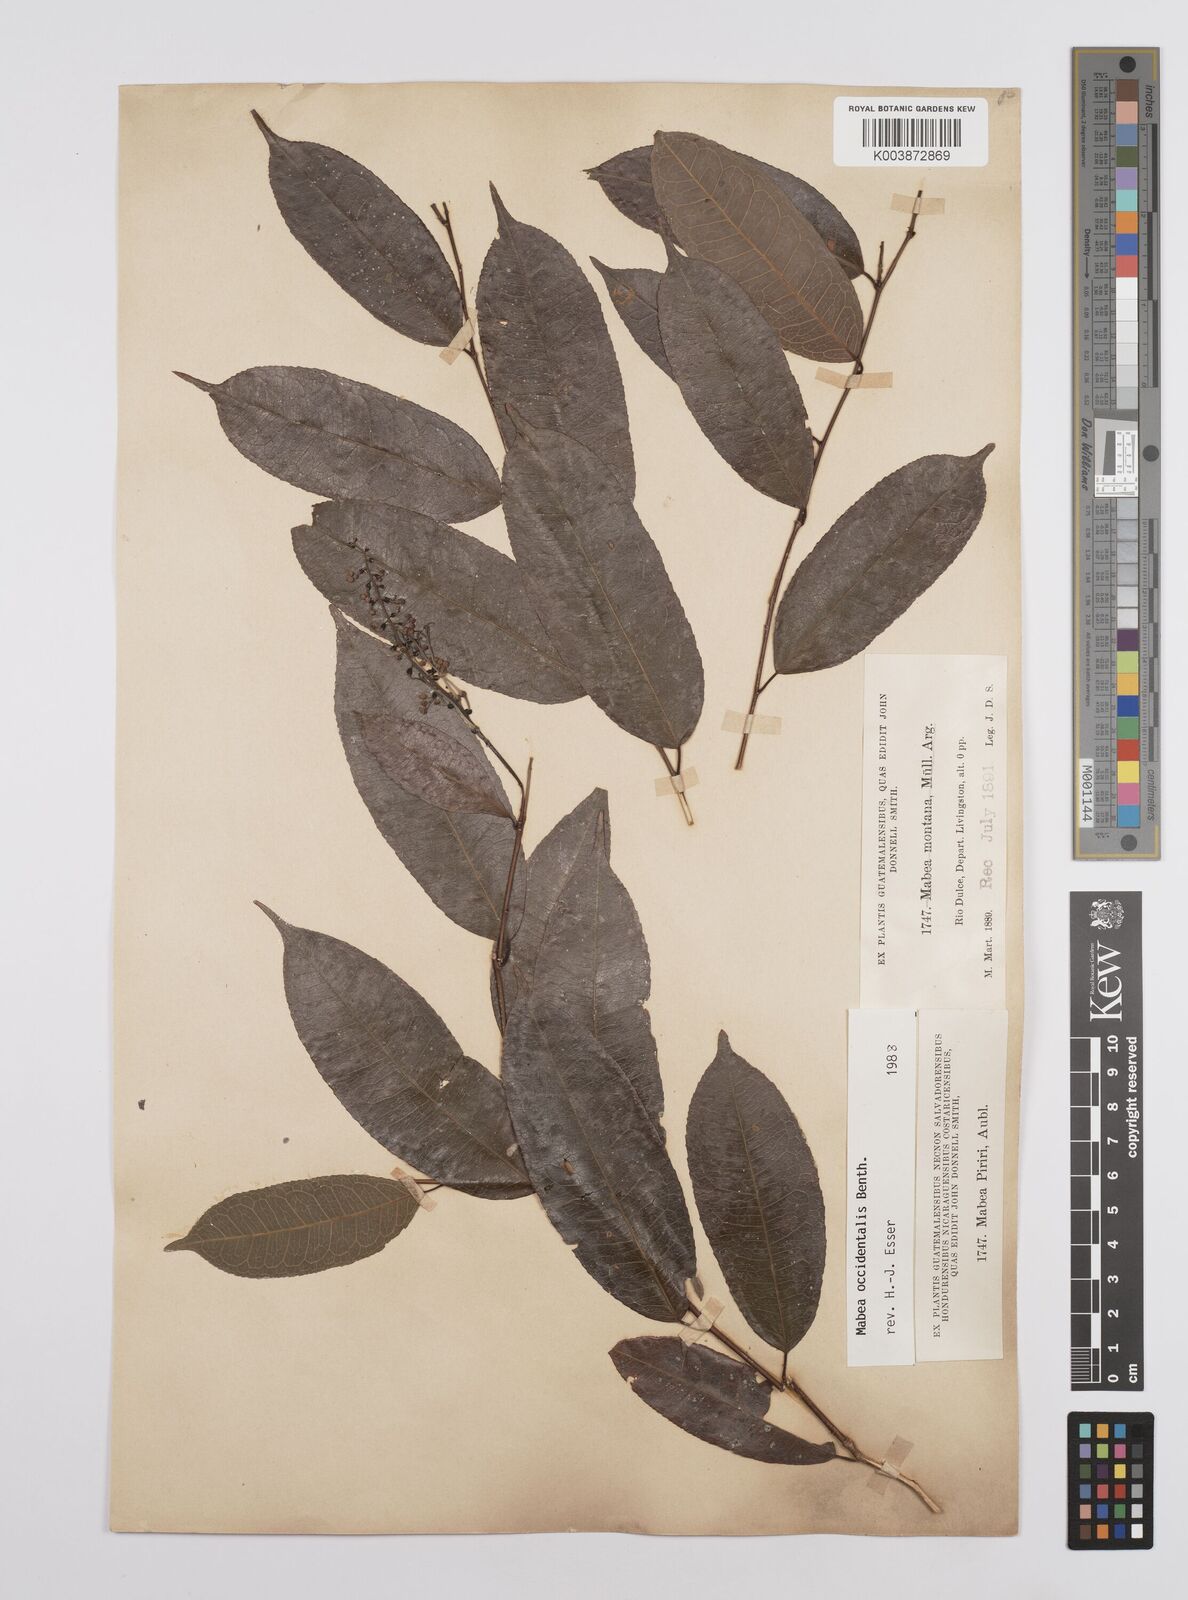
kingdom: Plantae
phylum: Tracheophyta
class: Magnoliopsida
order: Malpighiales
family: Euphorbiaceae
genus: Mabea
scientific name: Mabea occidentalis
